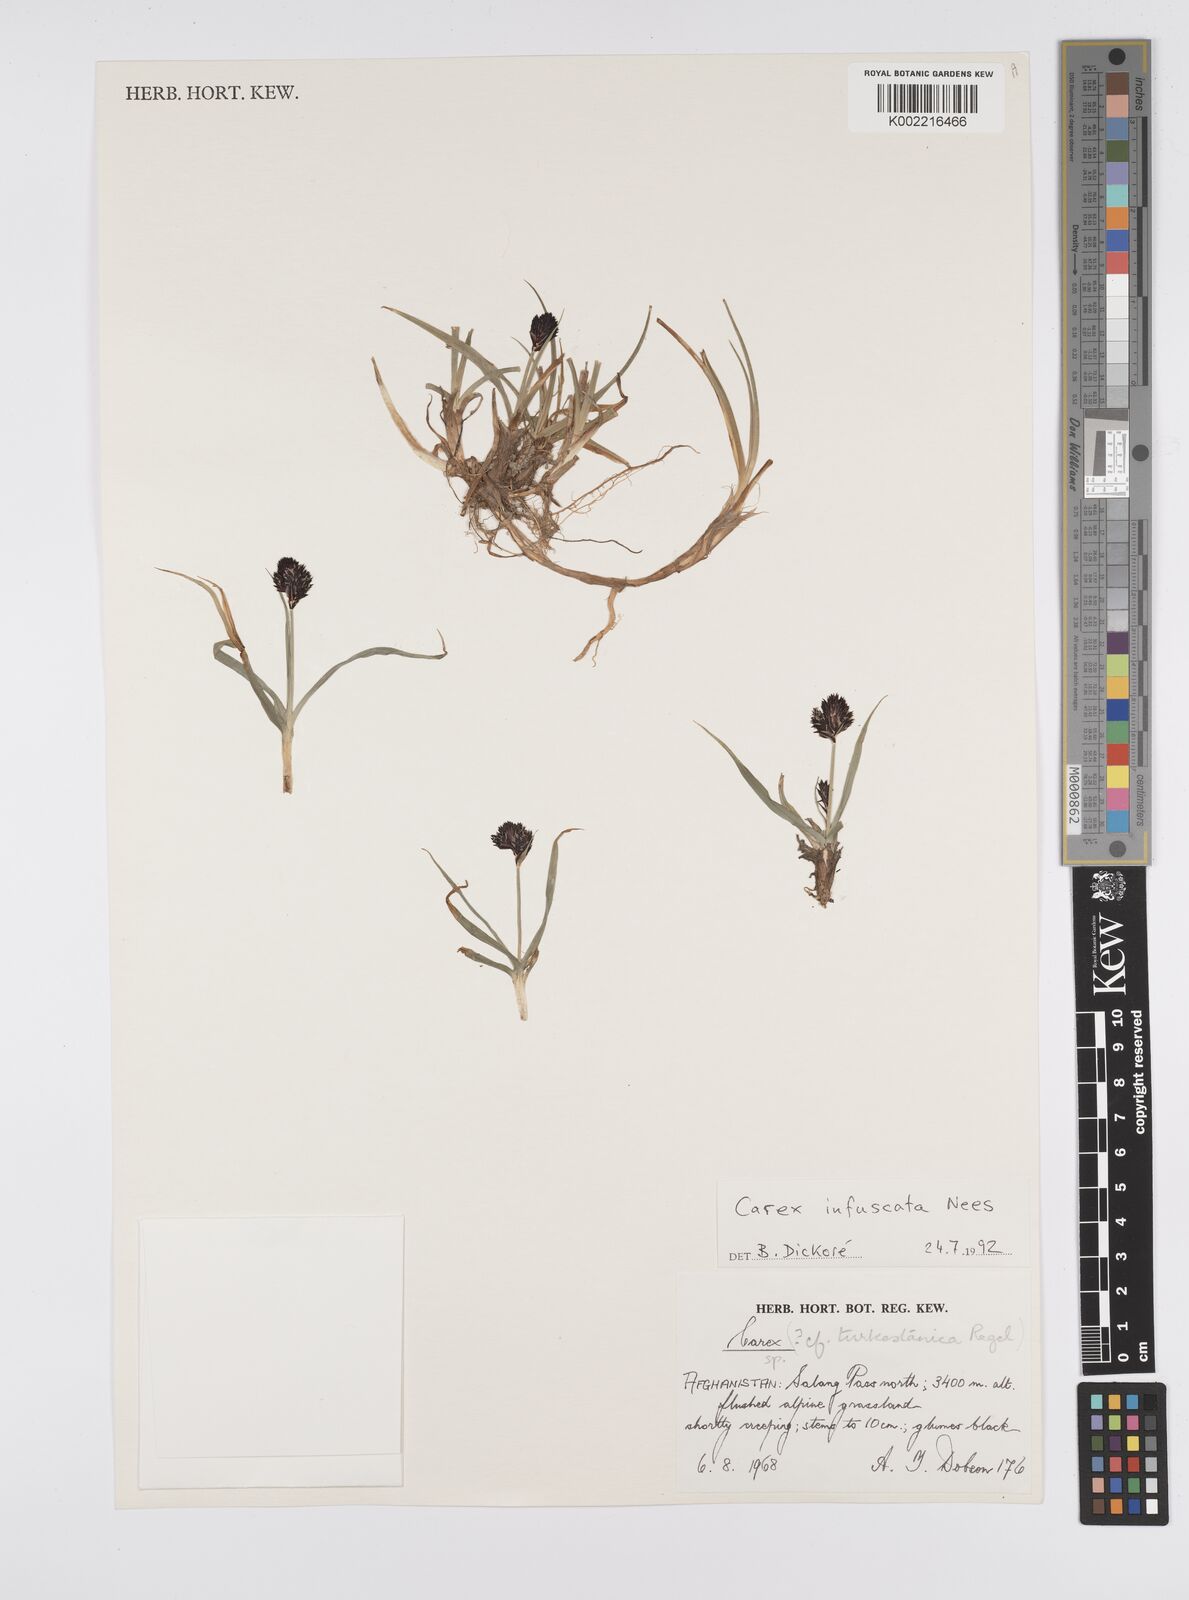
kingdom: Plantae
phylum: Tracheophyta
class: Liliopsida
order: Poales
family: Cyperaceae
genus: Carex
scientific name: Carex infuscata
